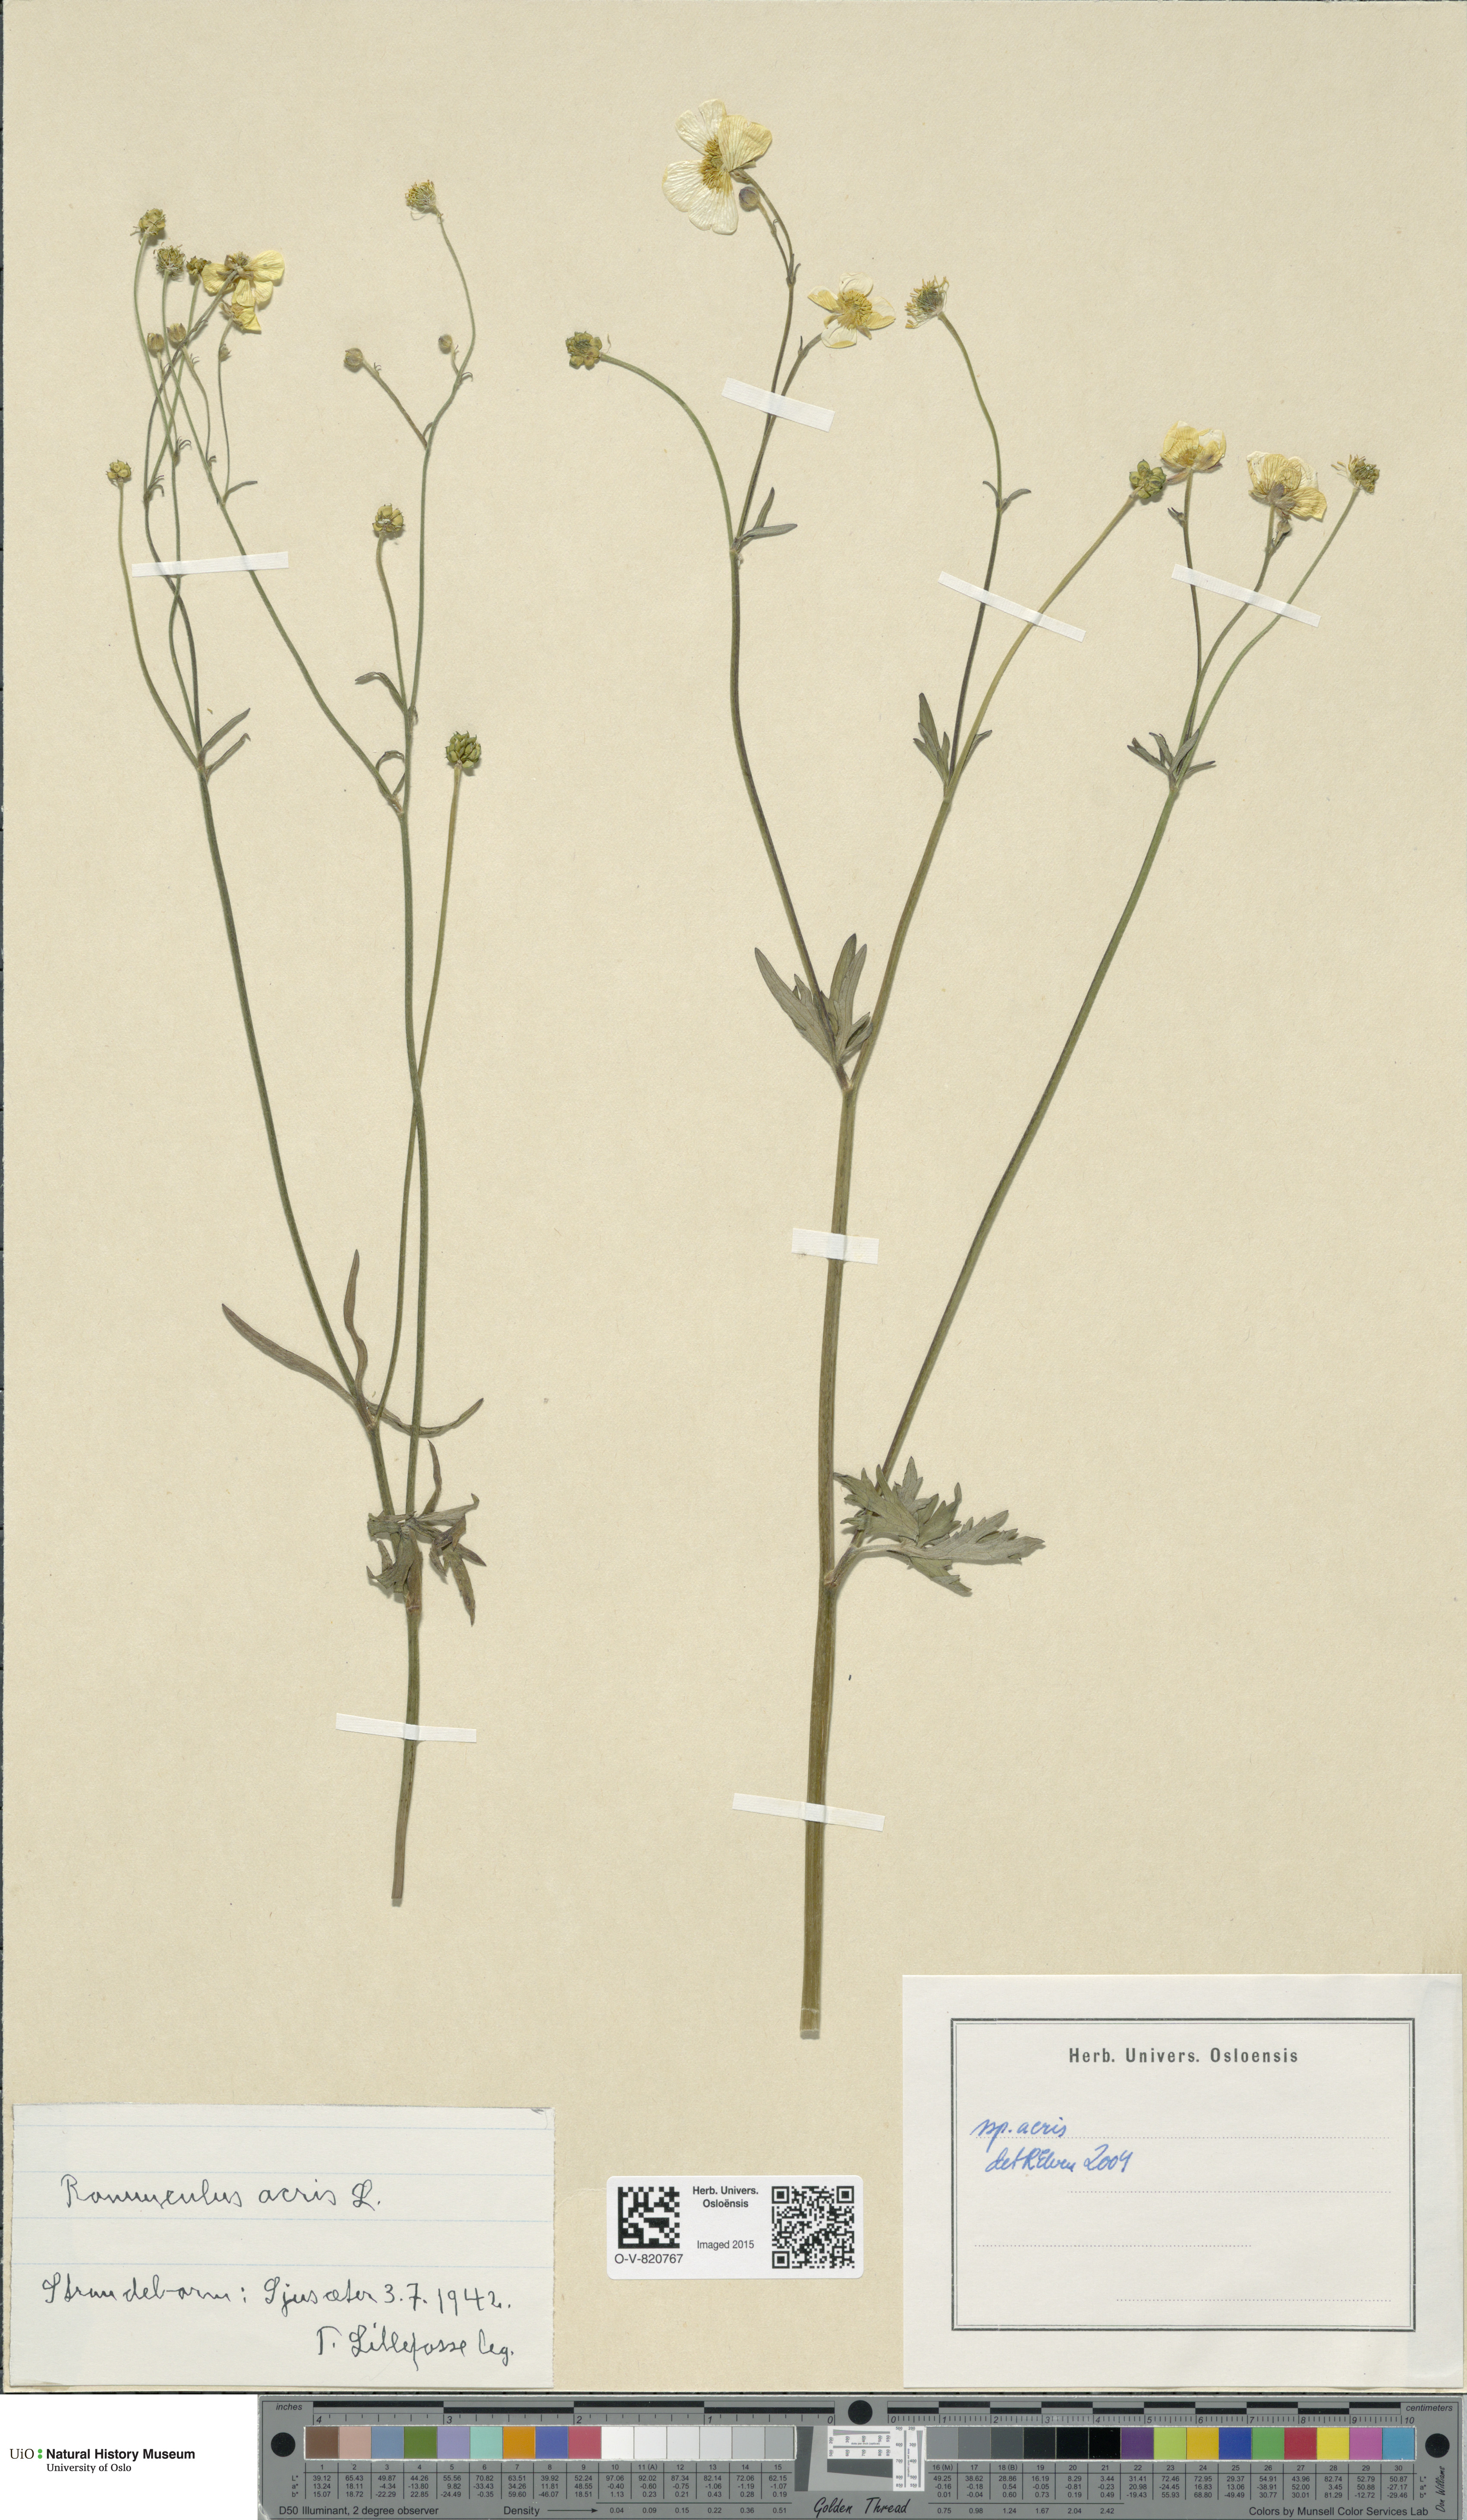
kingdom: Plantae
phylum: Tracheophyta
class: Magnoliopsida
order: Ranunculales
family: Ranunculaceae
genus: Ranunculus
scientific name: Ranunculus acris
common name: Meadow buttercup
